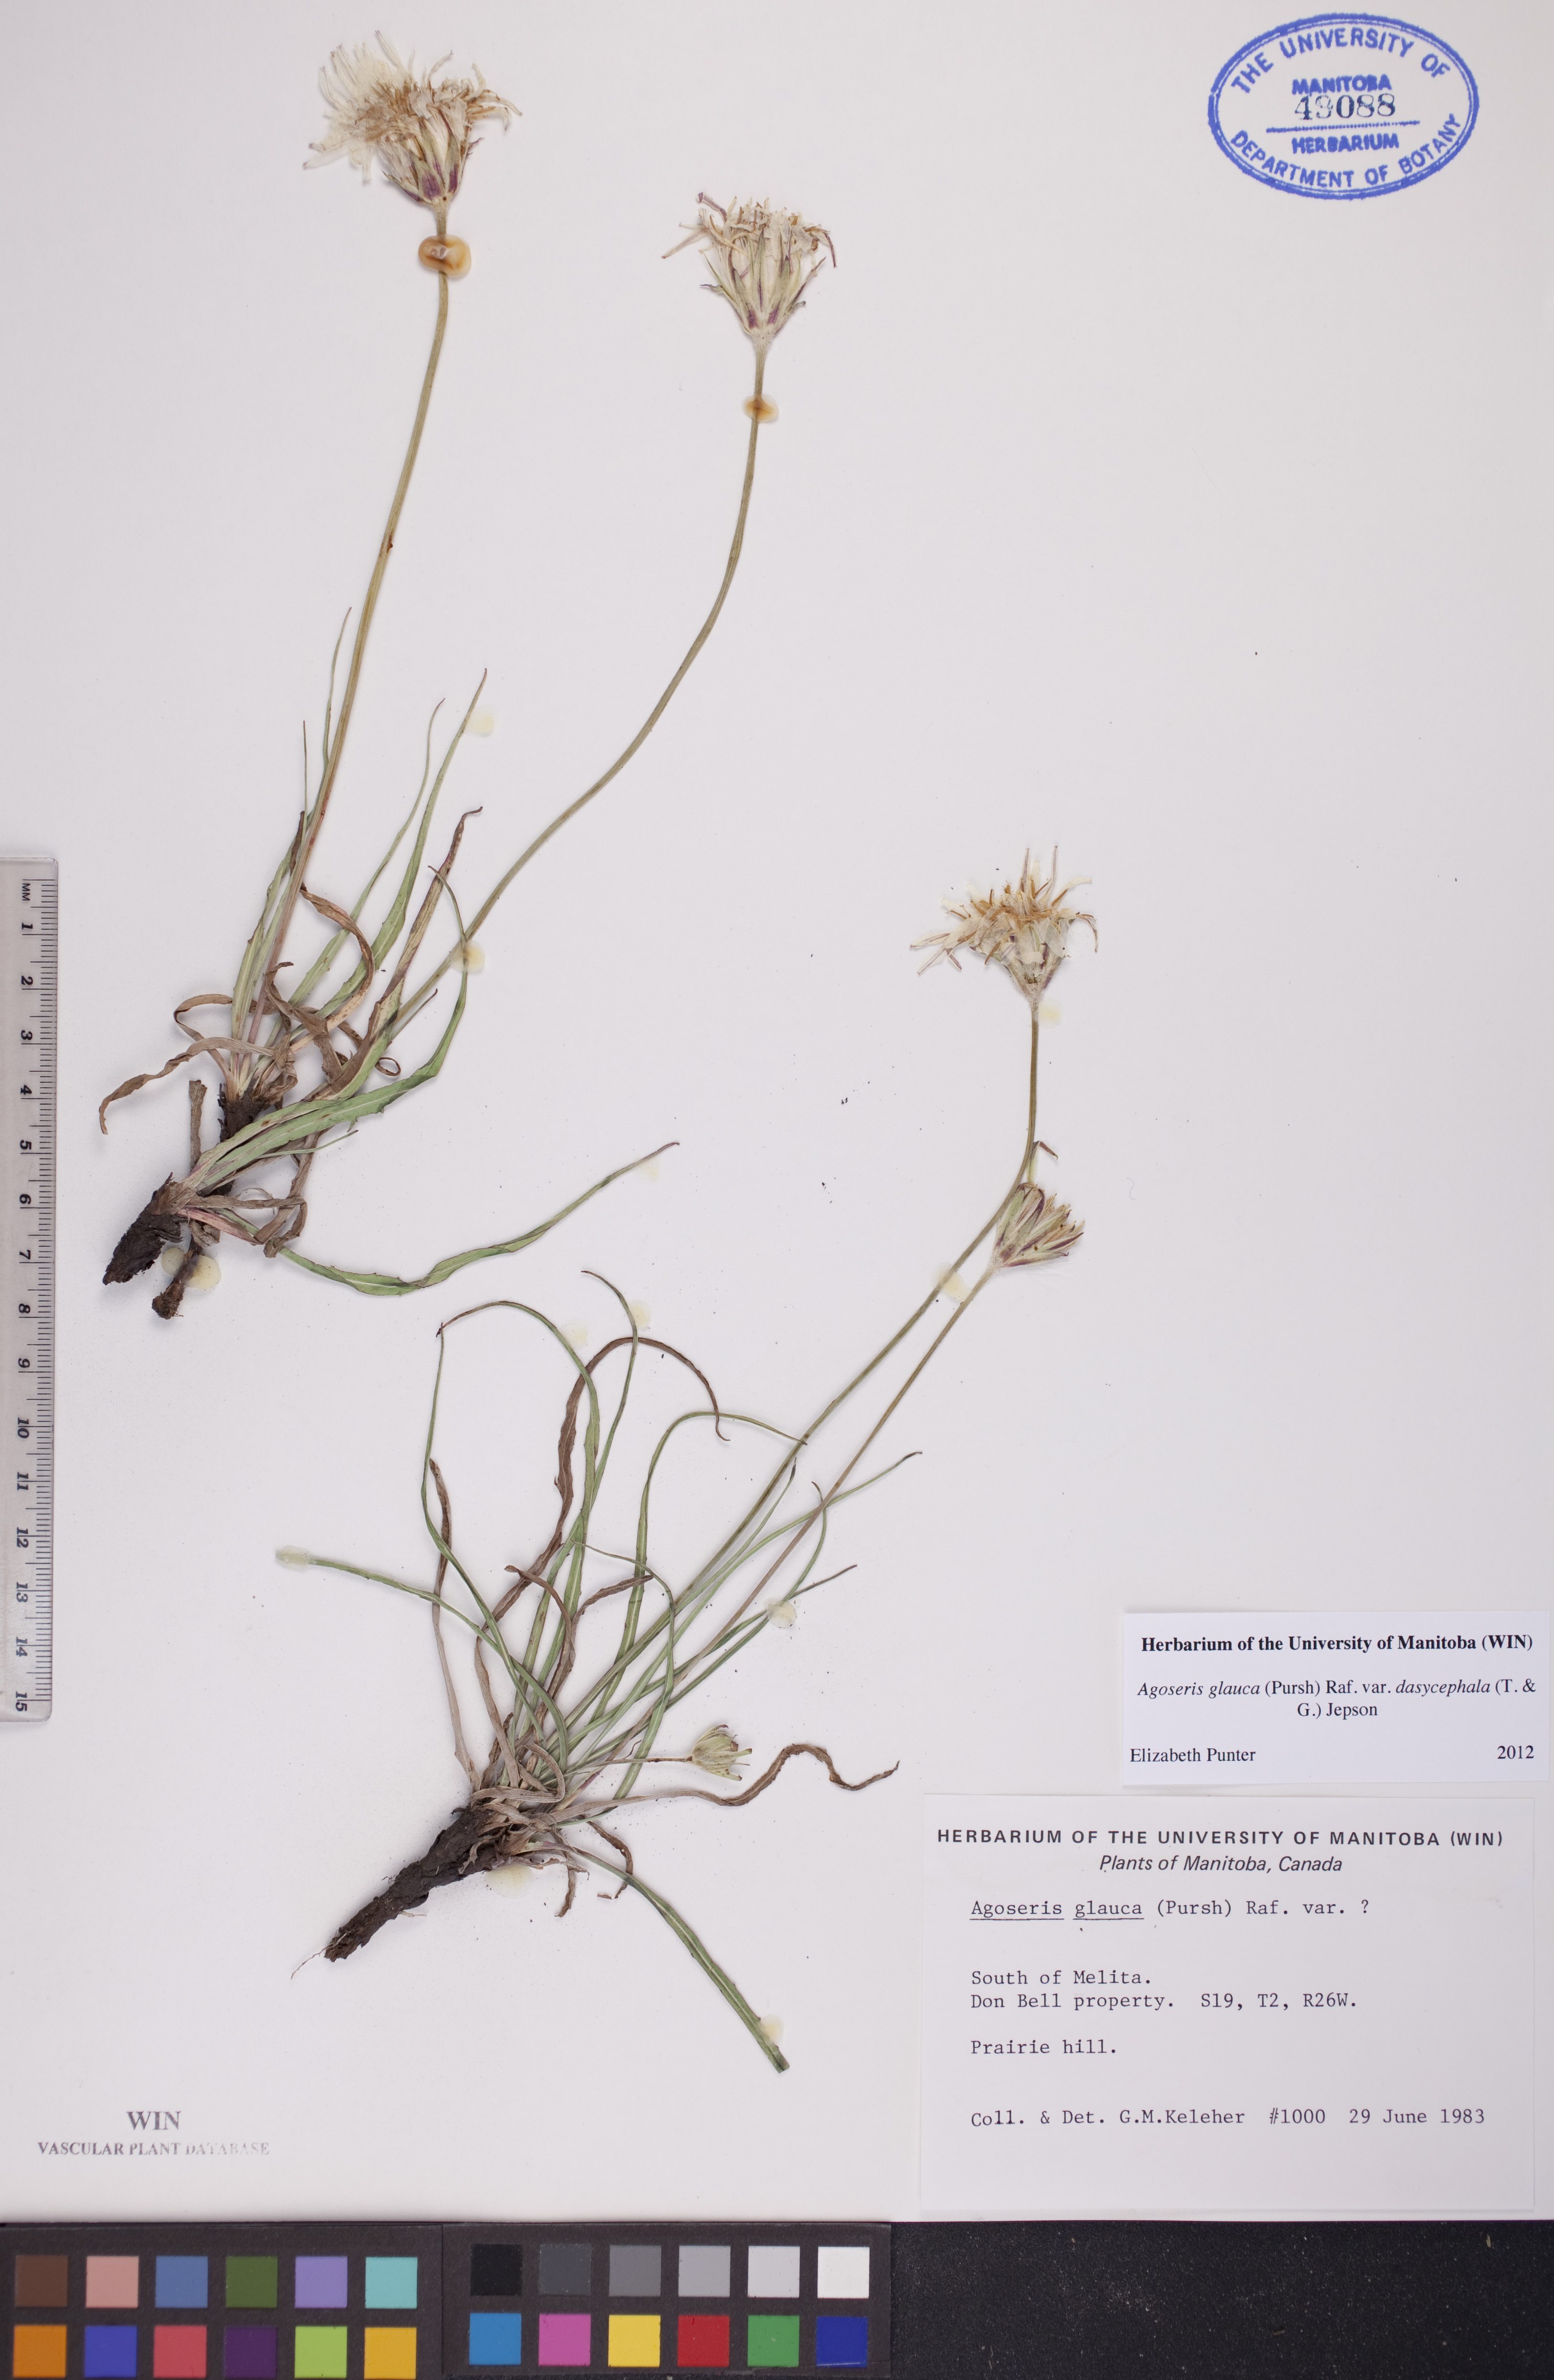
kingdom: Plantae
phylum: Tracheophyta
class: Magnoliopsida
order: Asterales
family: Asteraceae
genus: Agoseris
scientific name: Agoseris glauca
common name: Prairie agoseris
